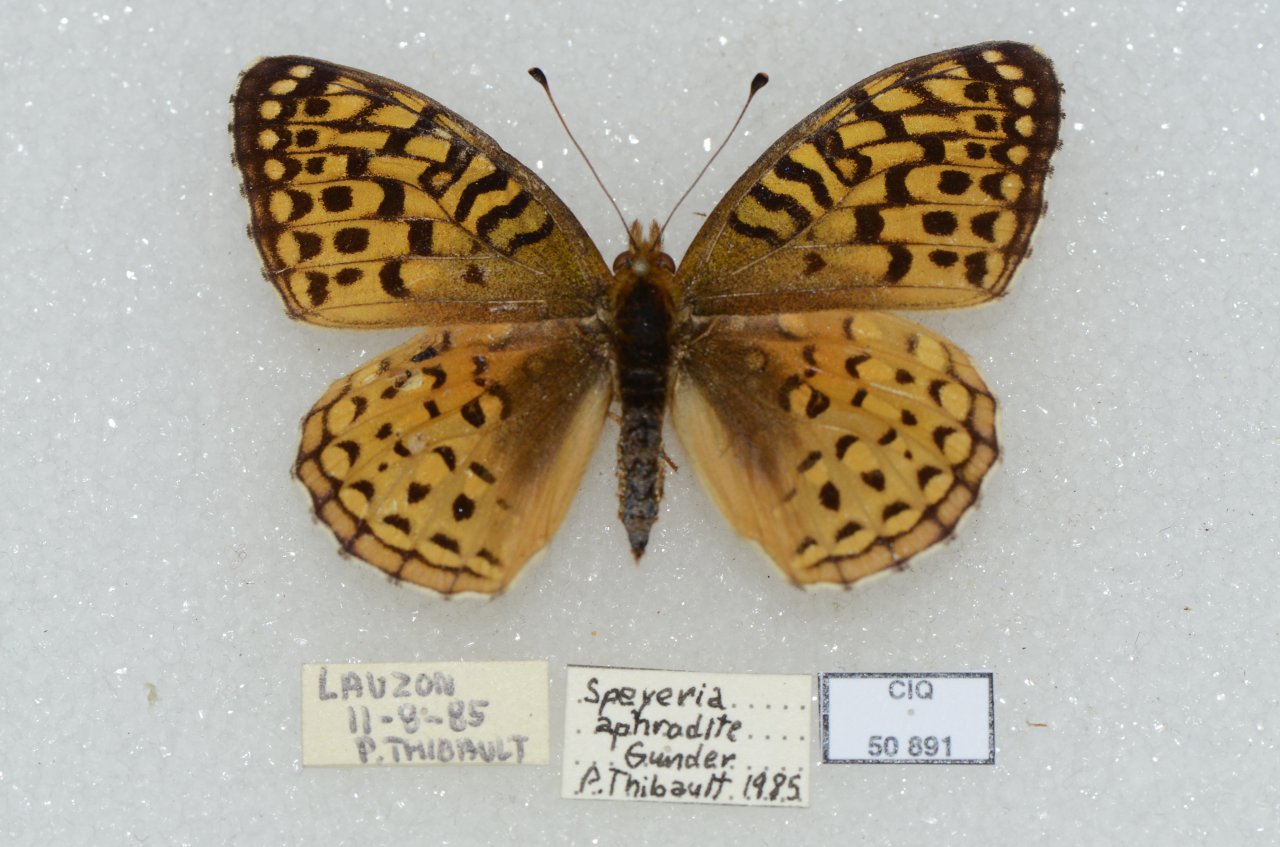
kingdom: Animalia
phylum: Arthropoda
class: Insecta
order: Lepidoptera
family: Nymphalidae
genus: Speyeria
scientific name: Speyeria aphrodite
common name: Aphrodite Fritillary
